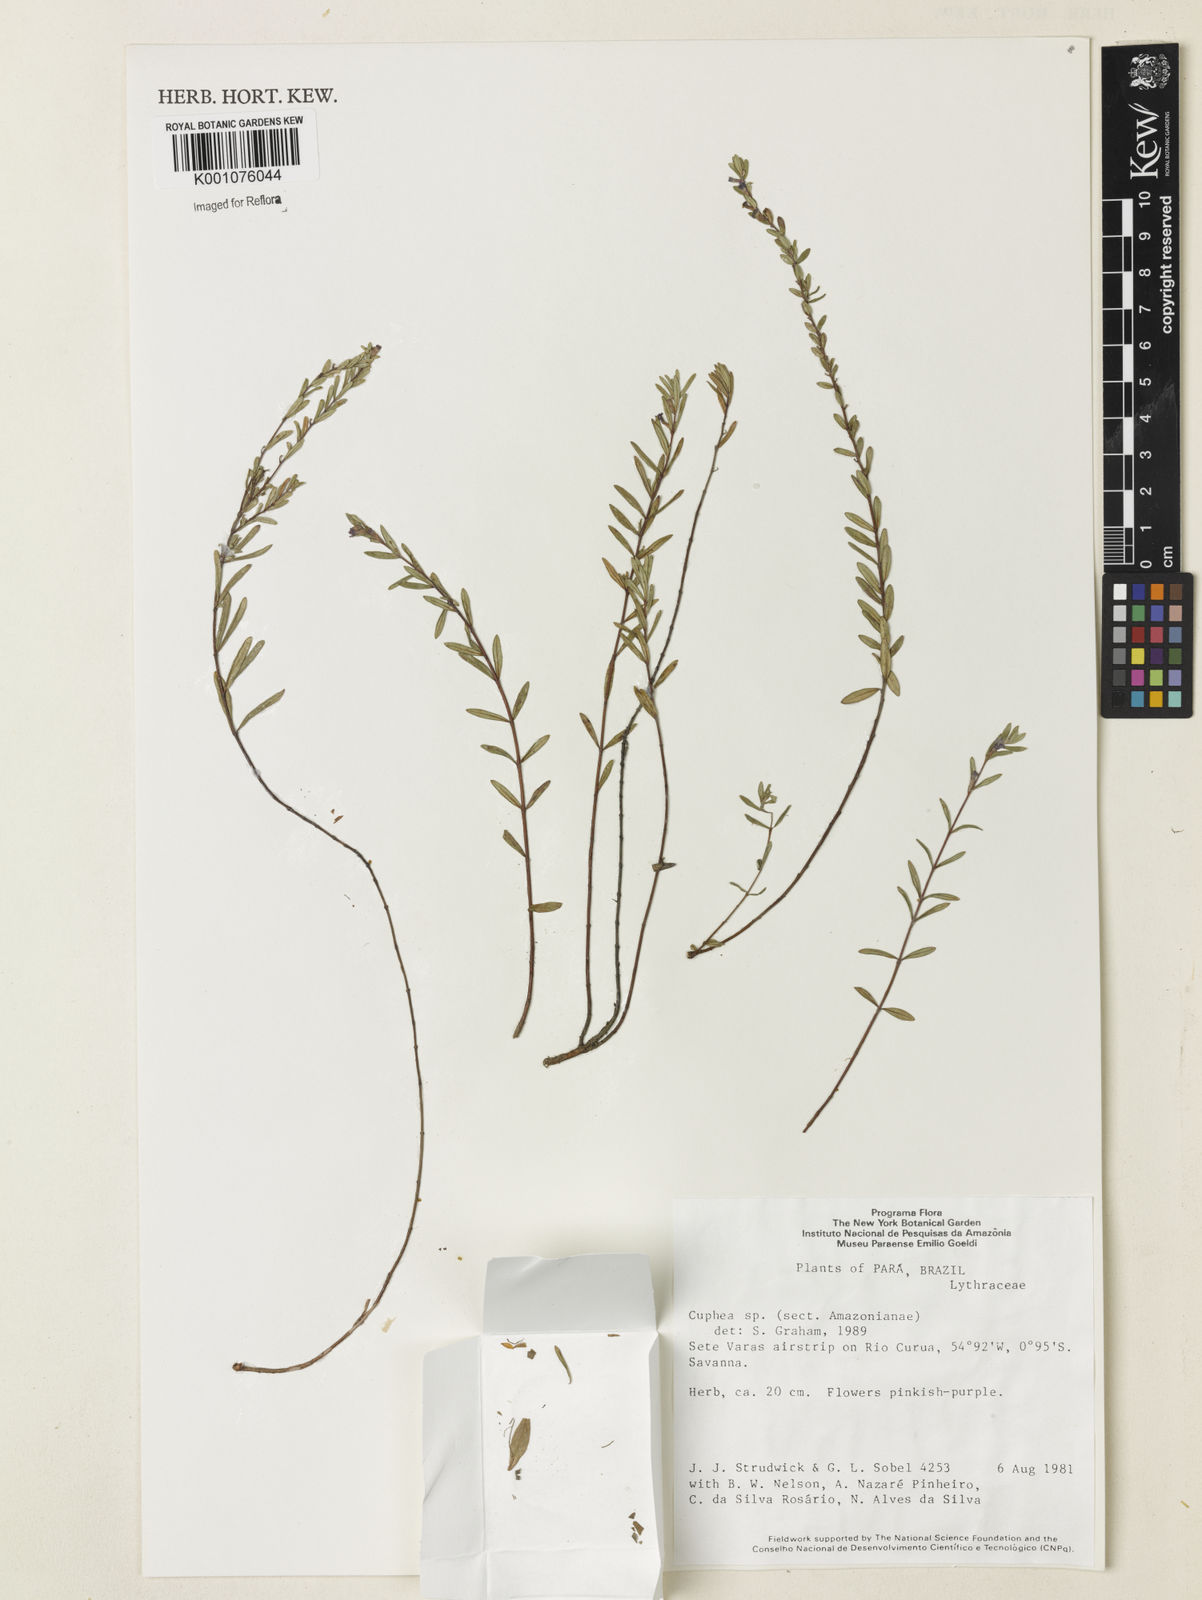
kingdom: Plantae
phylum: Tracheophyta
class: Magnoliopsida
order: Myrtales
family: Lythraceae
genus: Cuphea
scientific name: Cuphea
